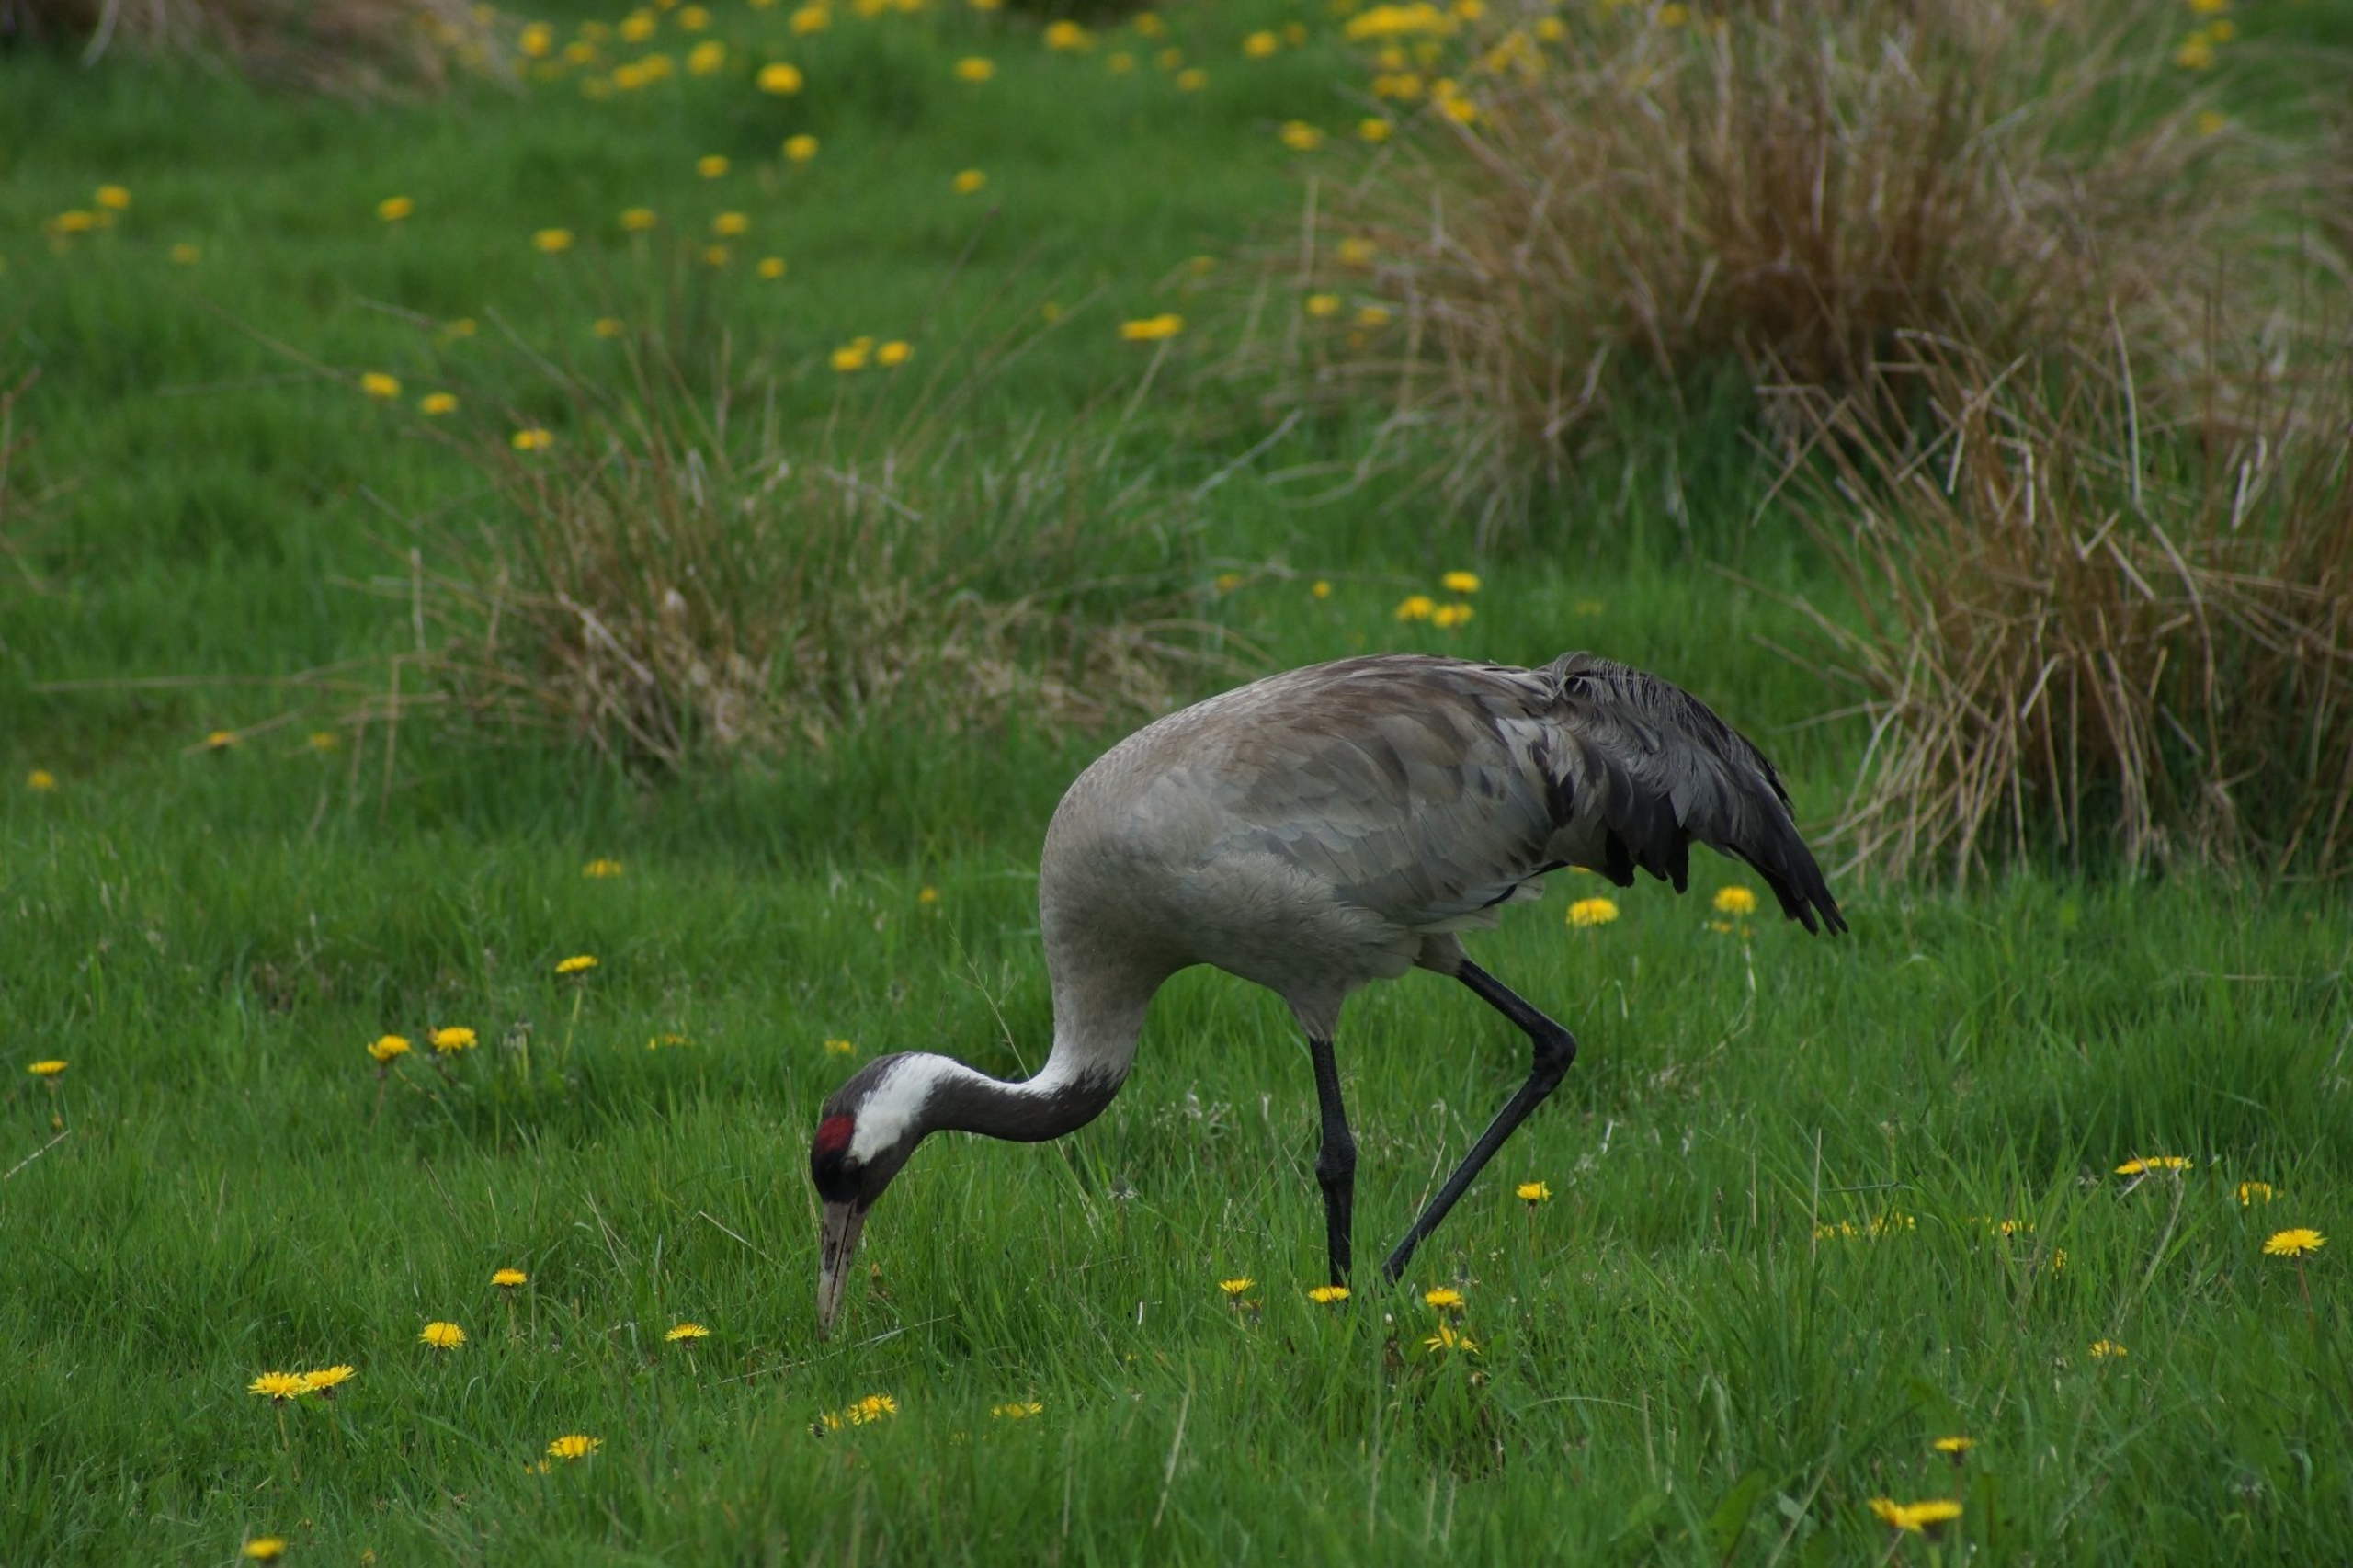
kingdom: Animalia
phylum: Chordata
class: Aves
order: Gruiformes
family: Gruidae
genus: Grus
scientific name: Grus grus
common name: Trane
